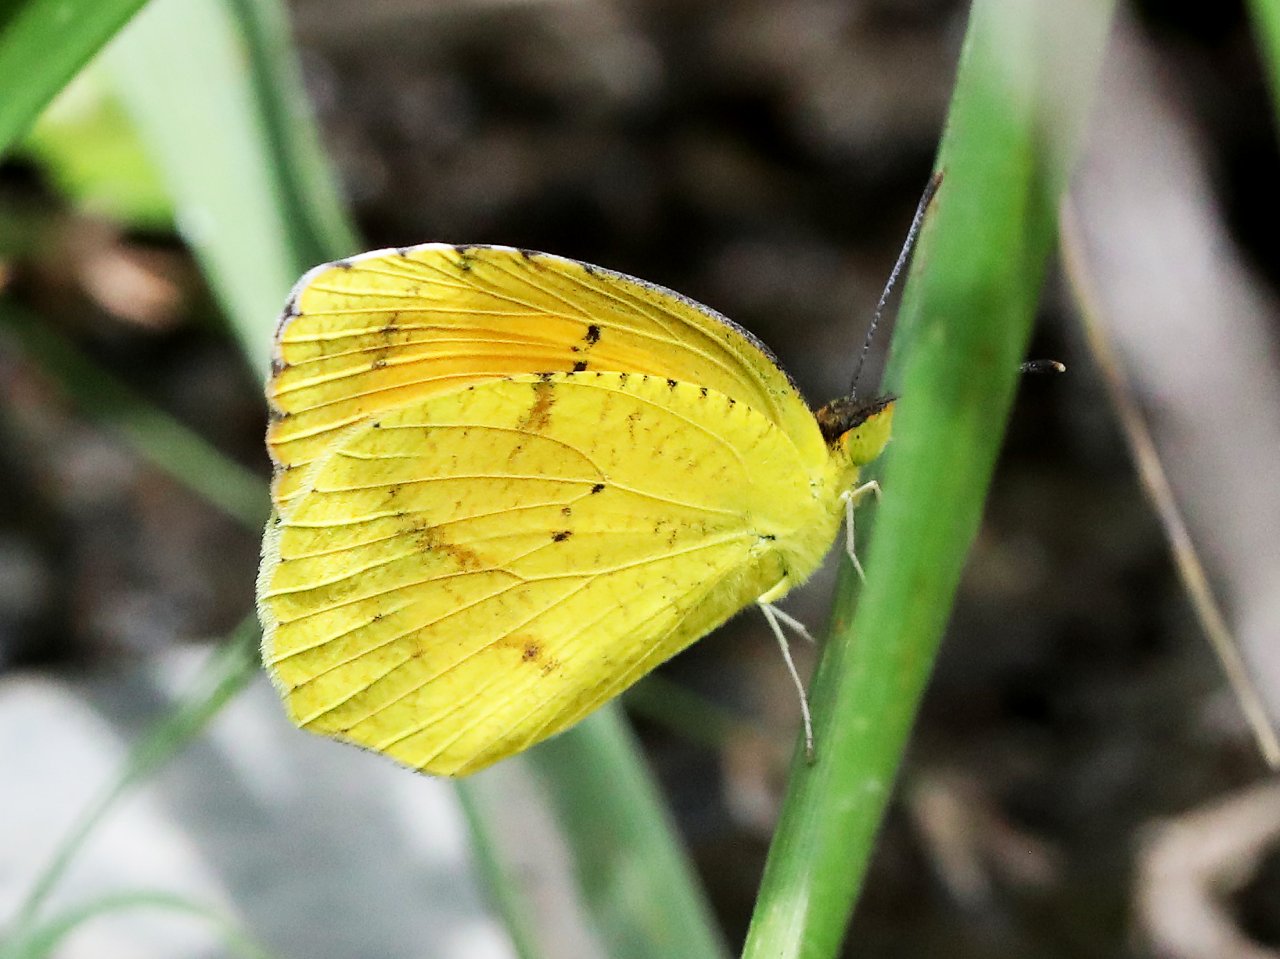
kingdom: Animalia
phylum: Arthropoda
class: Insecta
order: Lepidoptera
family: Pieridae
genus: Abaeis
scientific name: Abaeis nicippe
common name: Sleepy Orange
